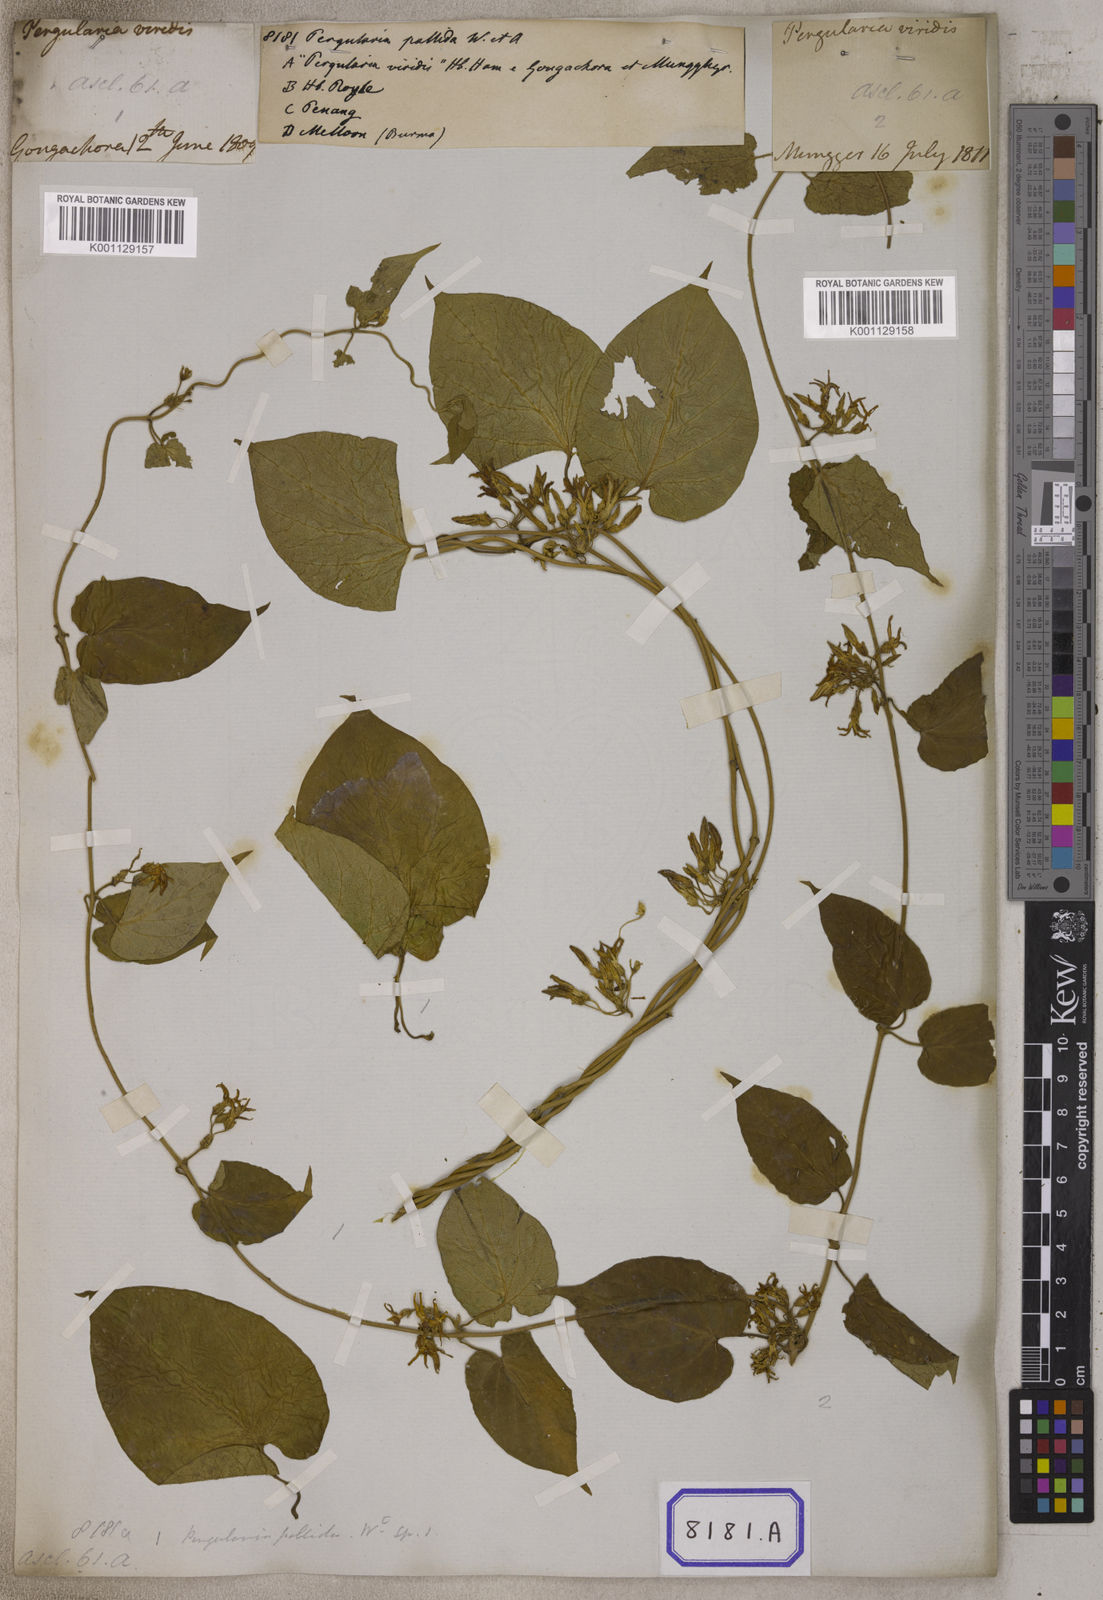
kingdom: Plantae
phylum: Tracheophyta
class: Magnoliopsida
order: Gentianales
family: Apocynaceae
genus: Telosma
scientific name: Telosma pallida
